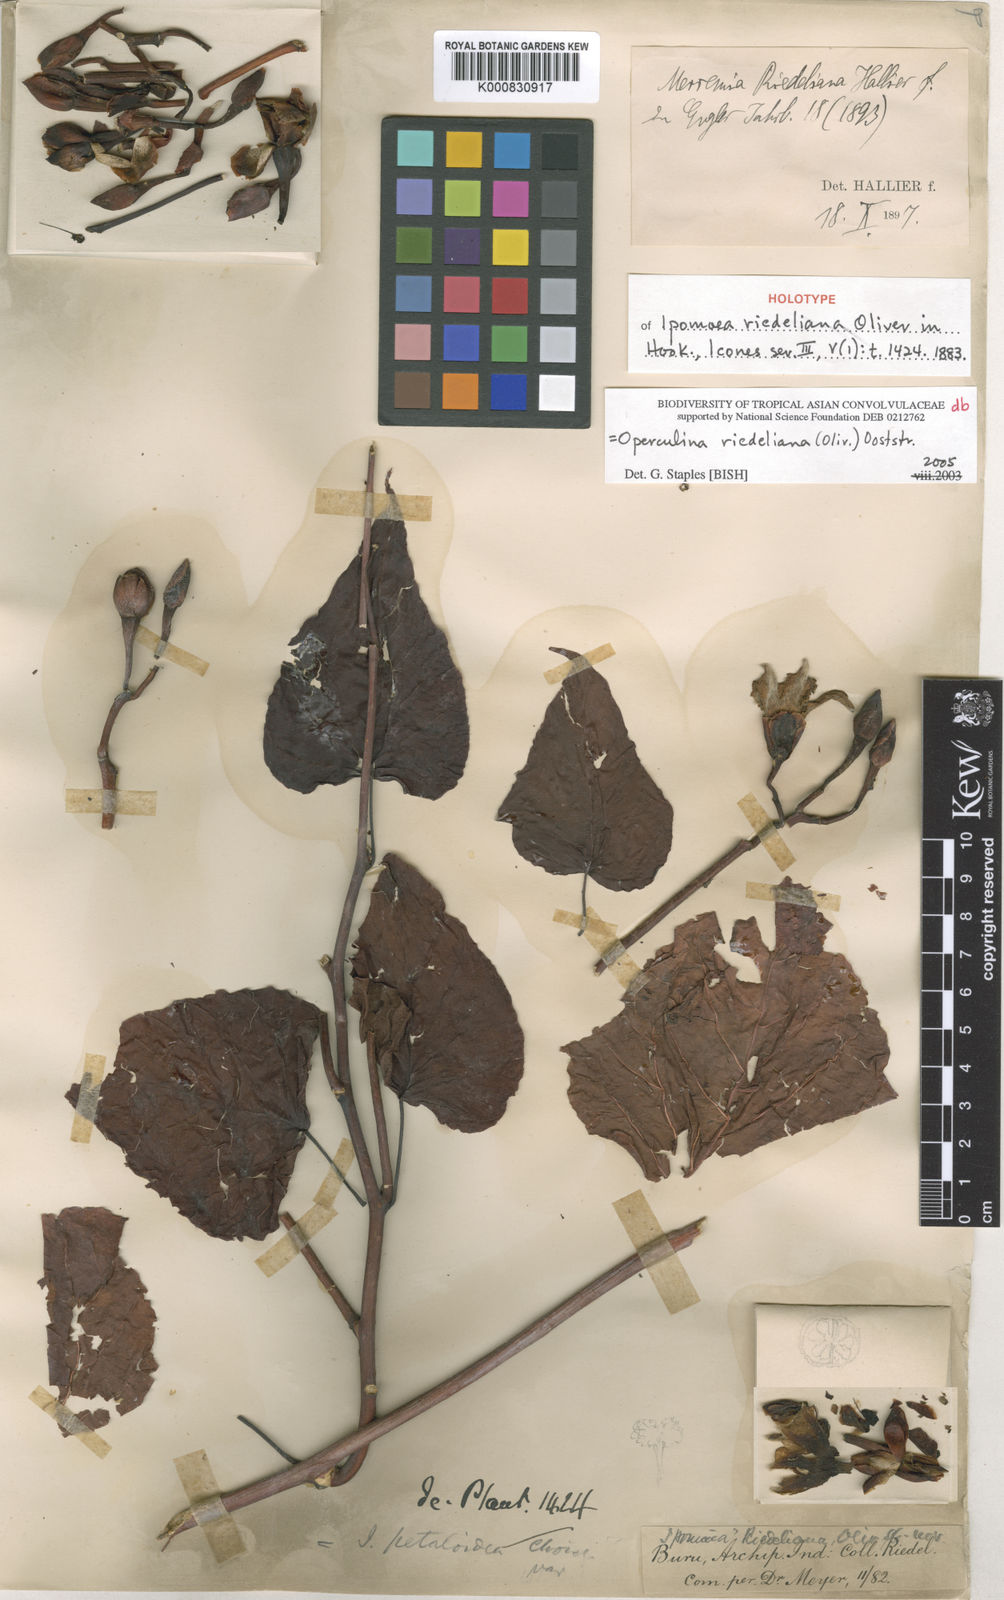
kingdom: Plantae
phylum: Tracheophyta
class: Magnoliopsida
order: Solanales
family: Convolvulaceae
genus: Operculina
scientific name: Operculina riedeliana
